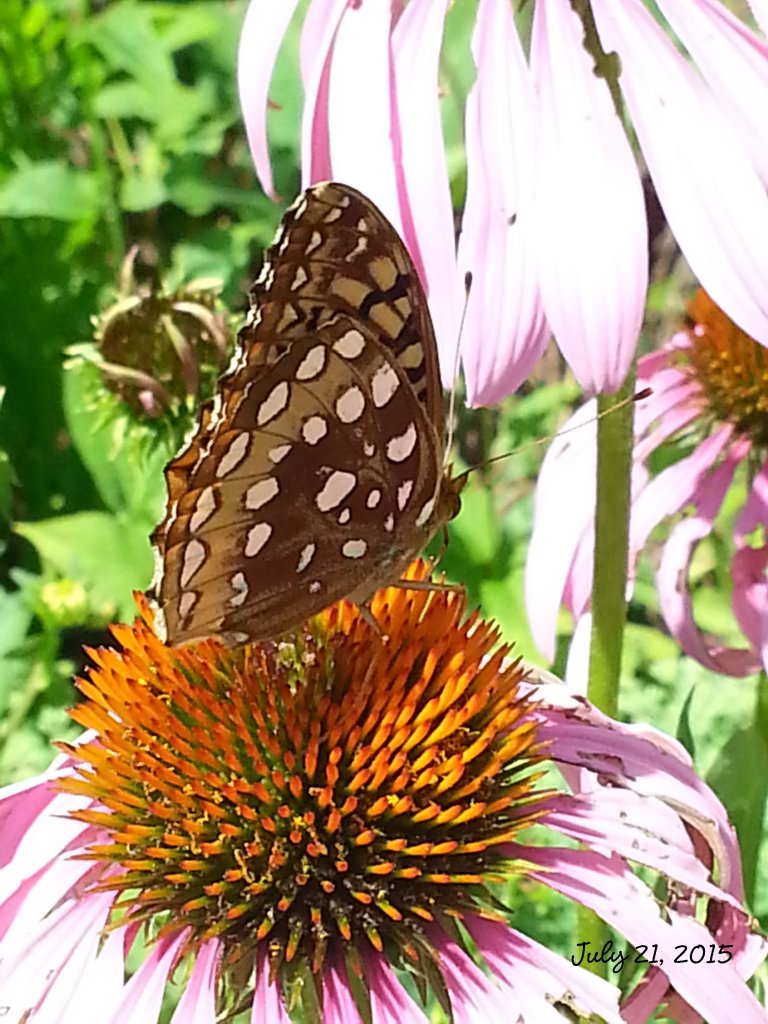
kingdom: Animalia
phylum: Arthropoda
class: Insecta
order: Lepidoptera
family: Nymphalidae
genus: Speyeria
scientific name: Speyeria cybele
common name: Great Spangled Fritillary
